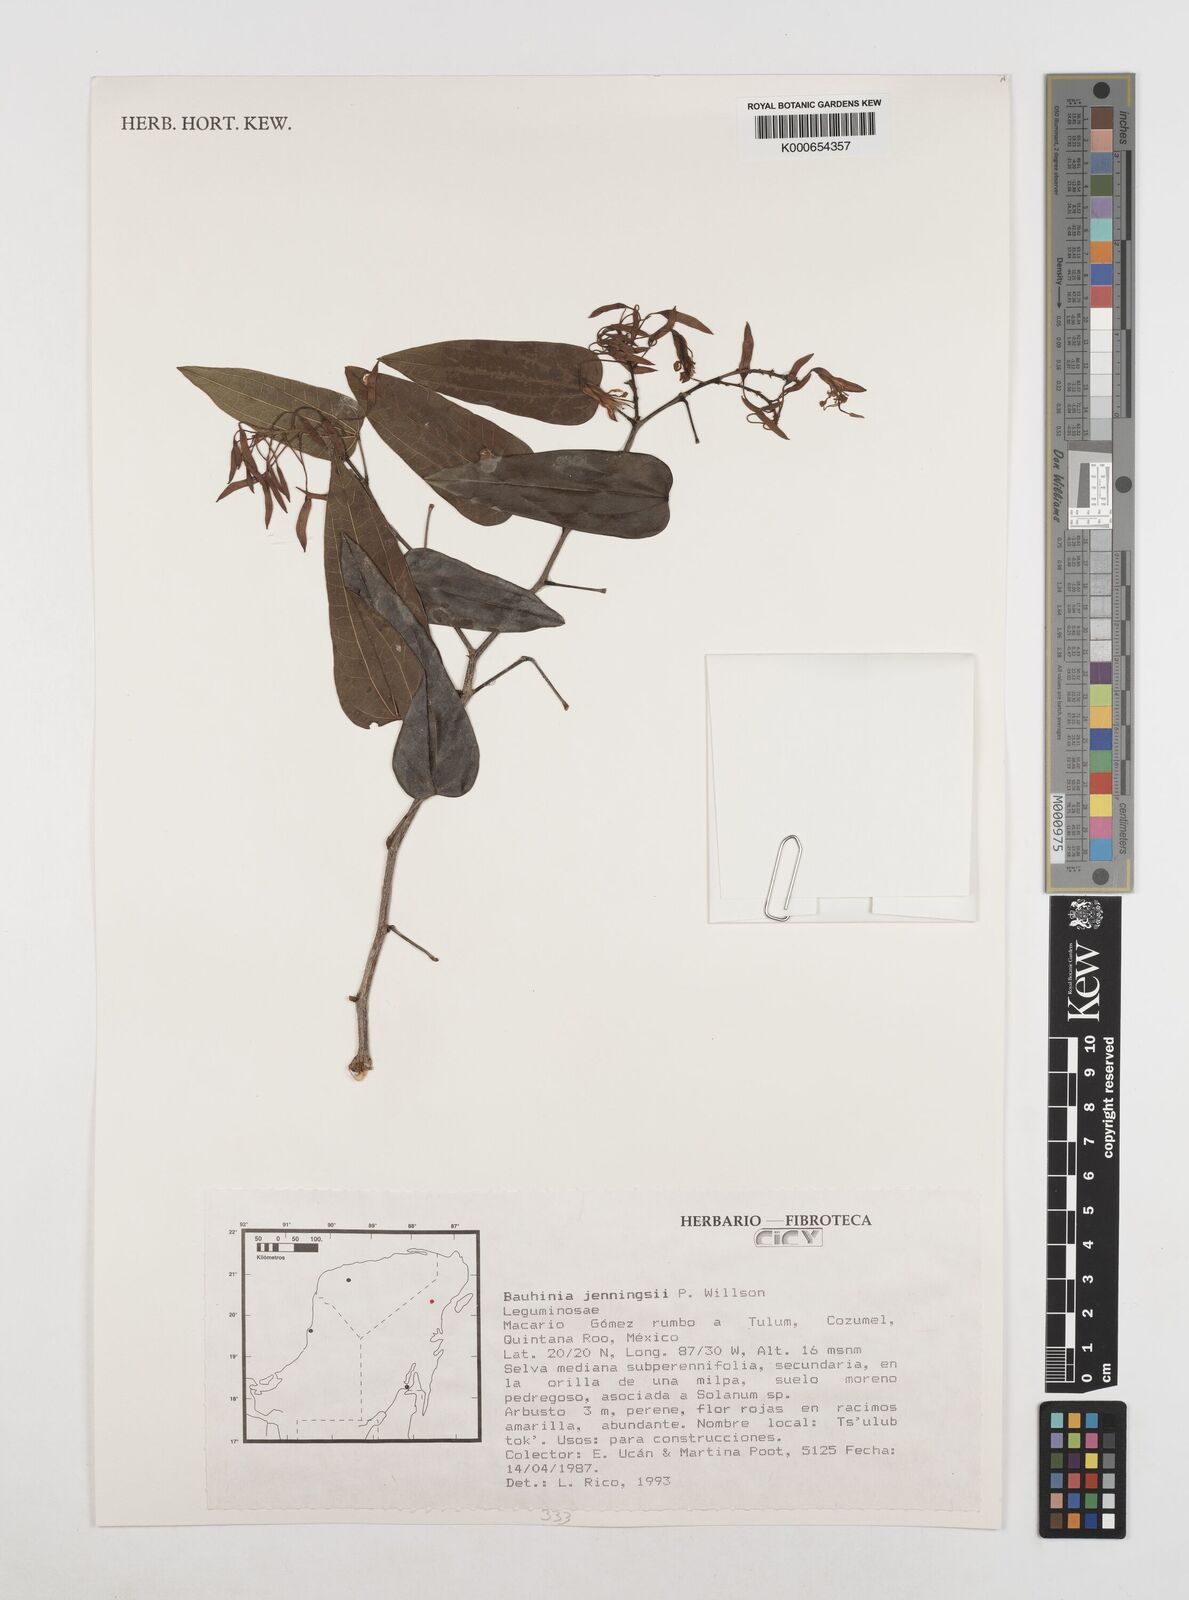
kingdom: Plantae
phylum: Tracheophyta
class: Magnoliopsida
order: Fabales
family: Fabaceae
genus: Bauhinia
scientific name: Bauhinia jenningsii
